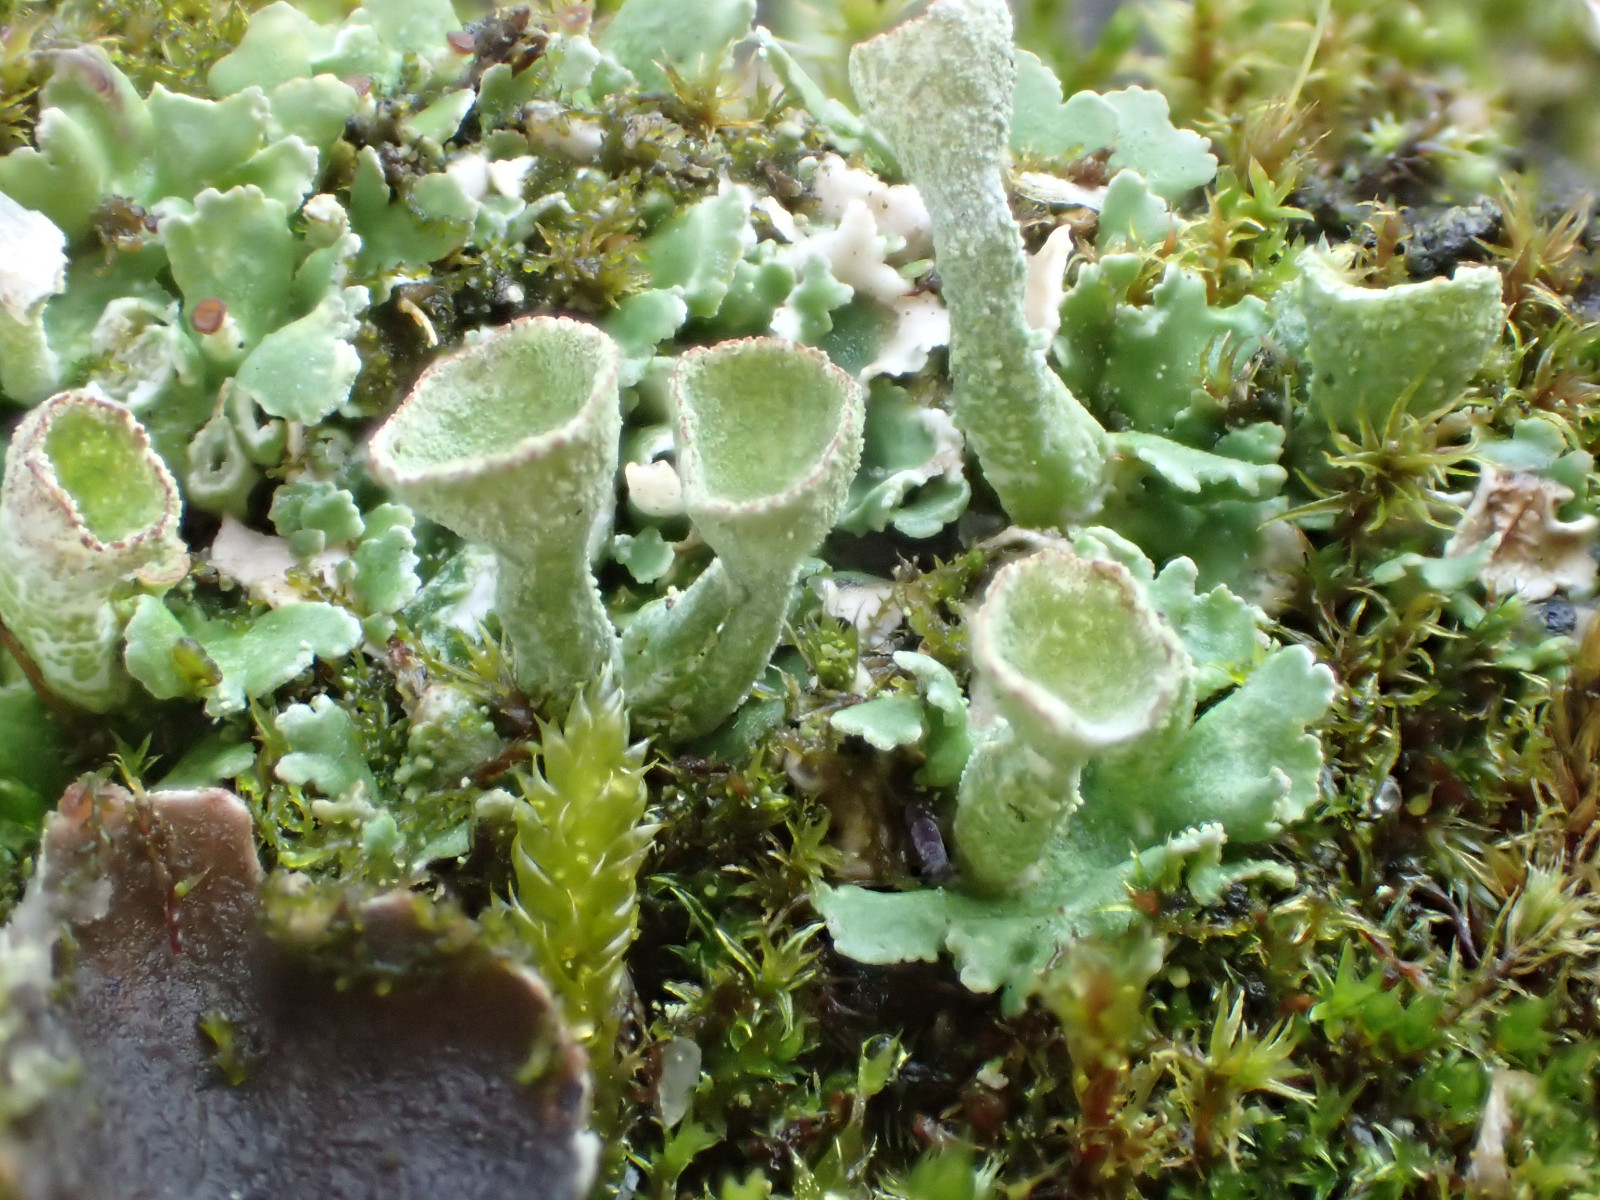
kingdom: Fungi
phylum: Ascomycota
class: Lecanoromycetes
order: Lecanorales
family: Cladoniaceae
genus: Cladonia
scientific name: Cladonia humilis
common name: lav bægerlav
